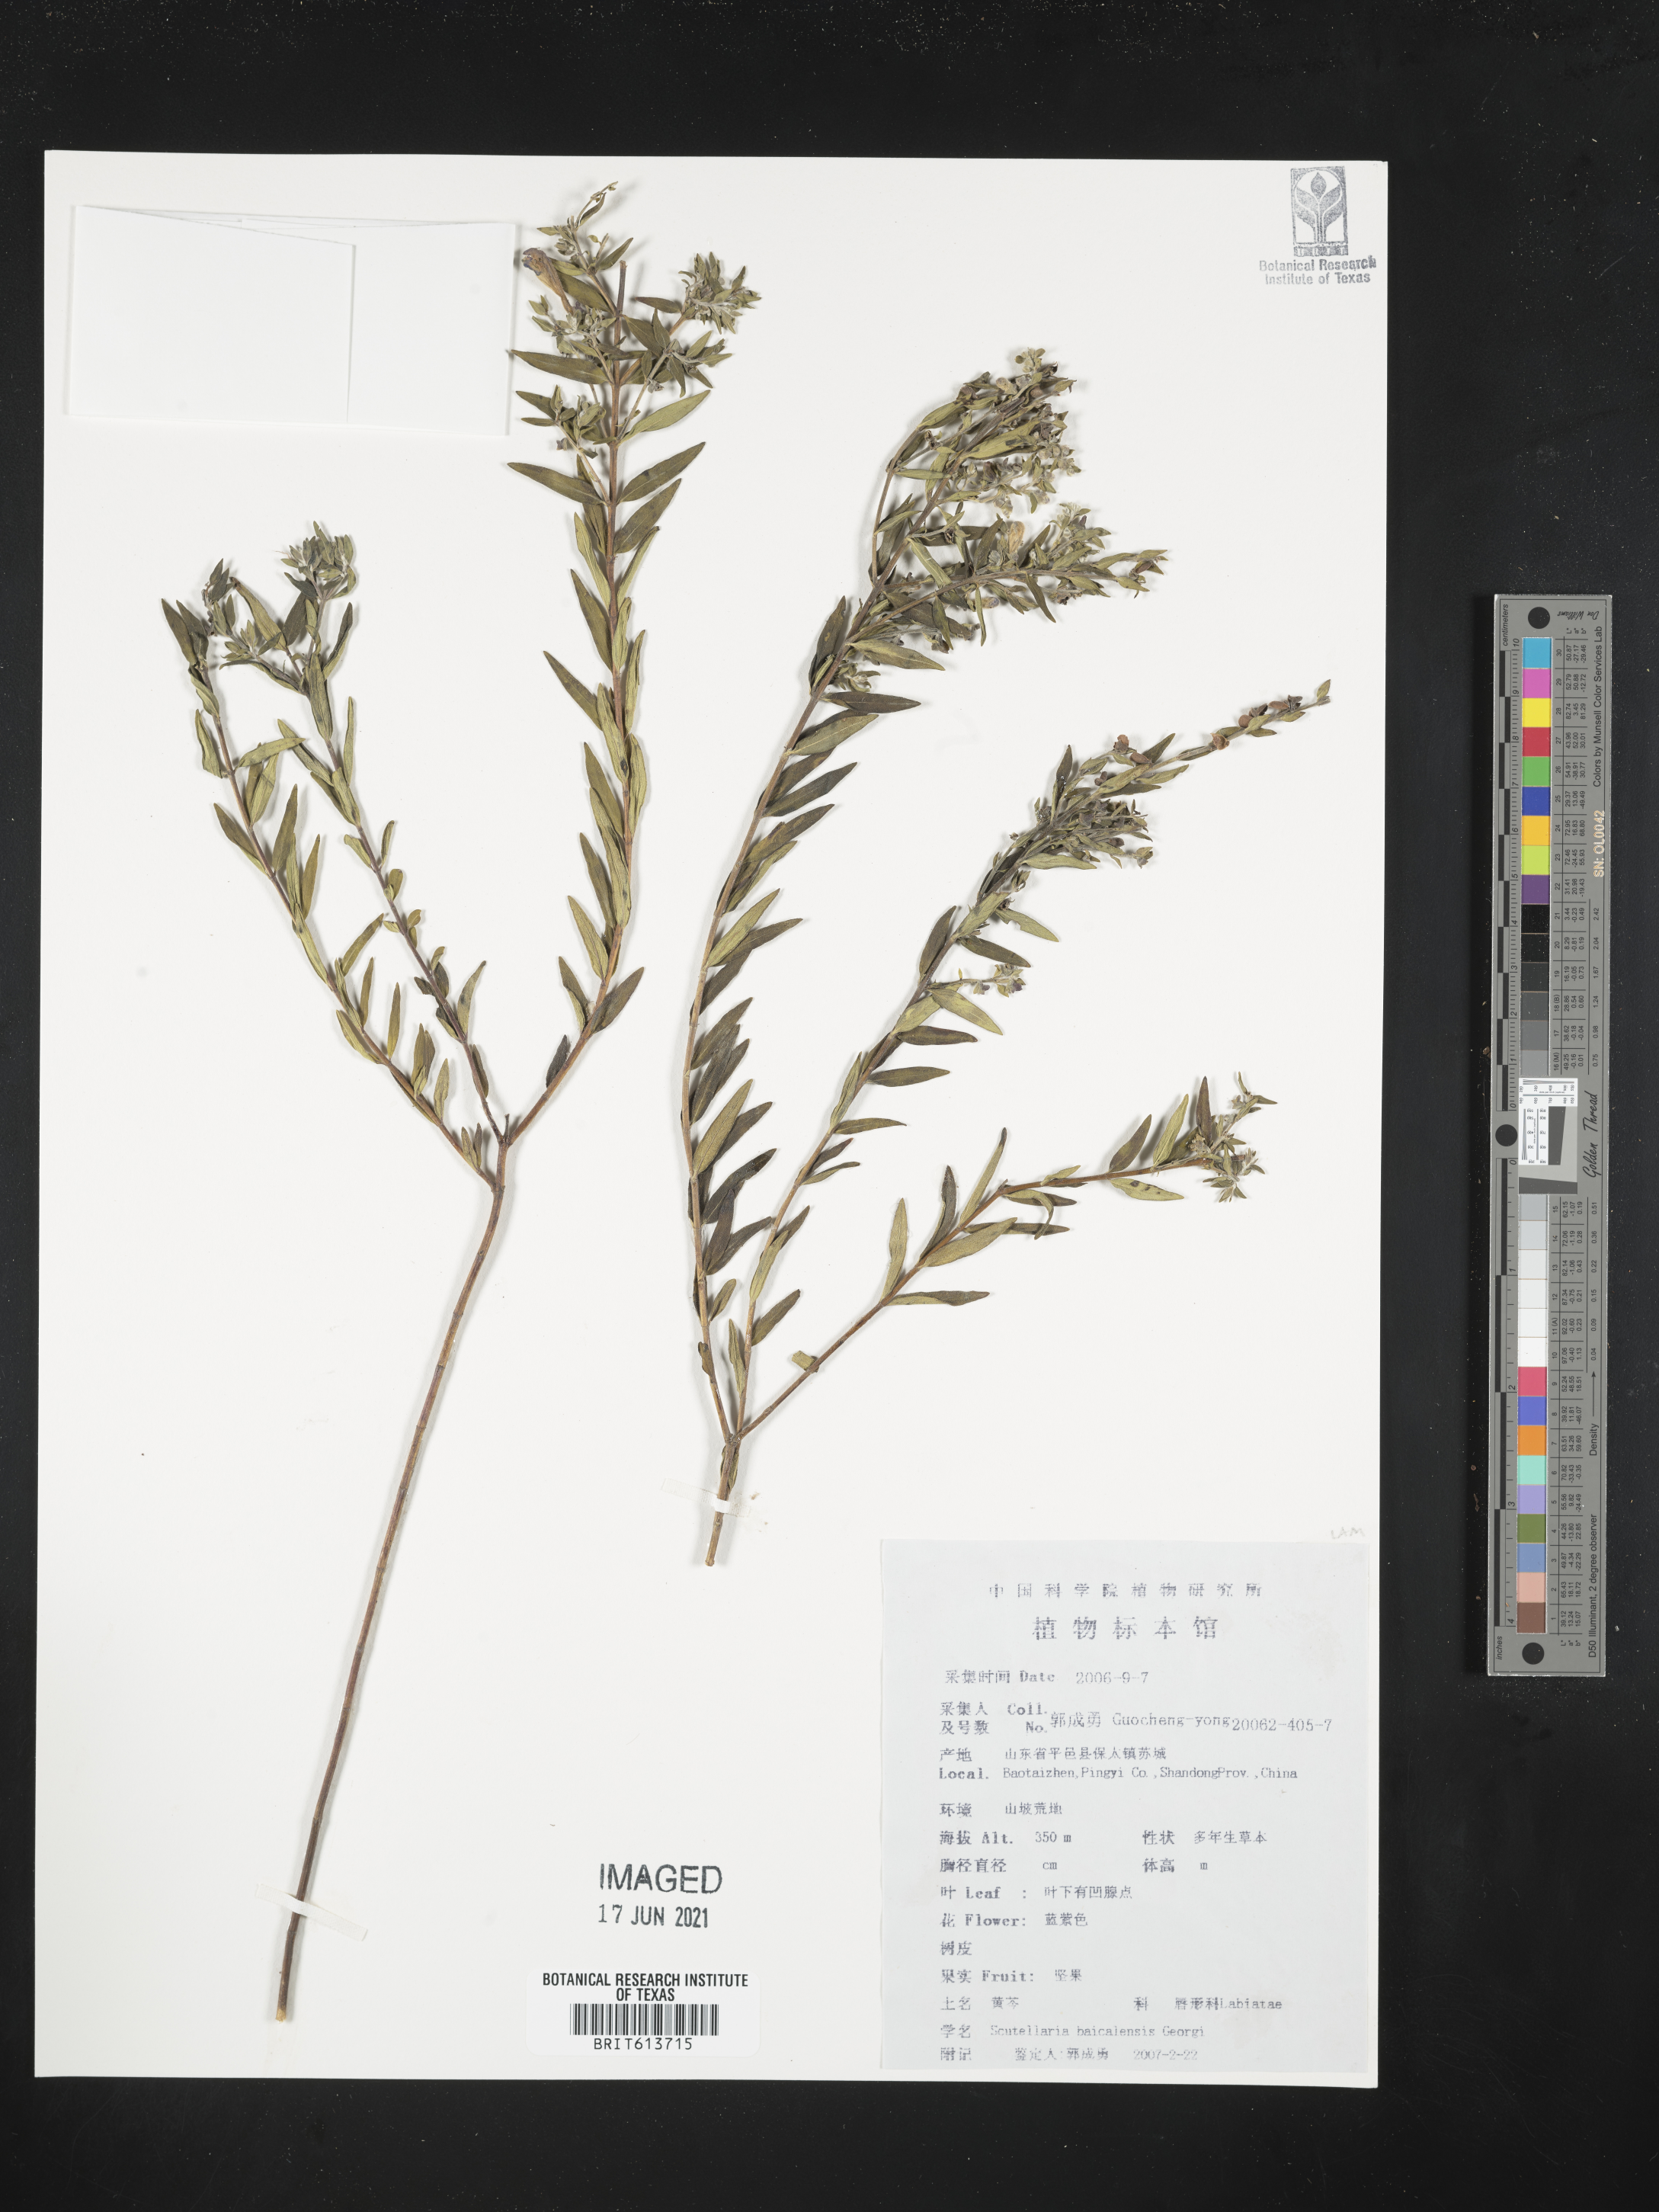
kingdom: Plantae
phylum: Tracheophyta
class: Magnoliopsida
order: Lamiales
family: Lamiaceae
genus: Scutellaria
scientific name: Scutellaria baicalensis
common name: Baikal skullcap
